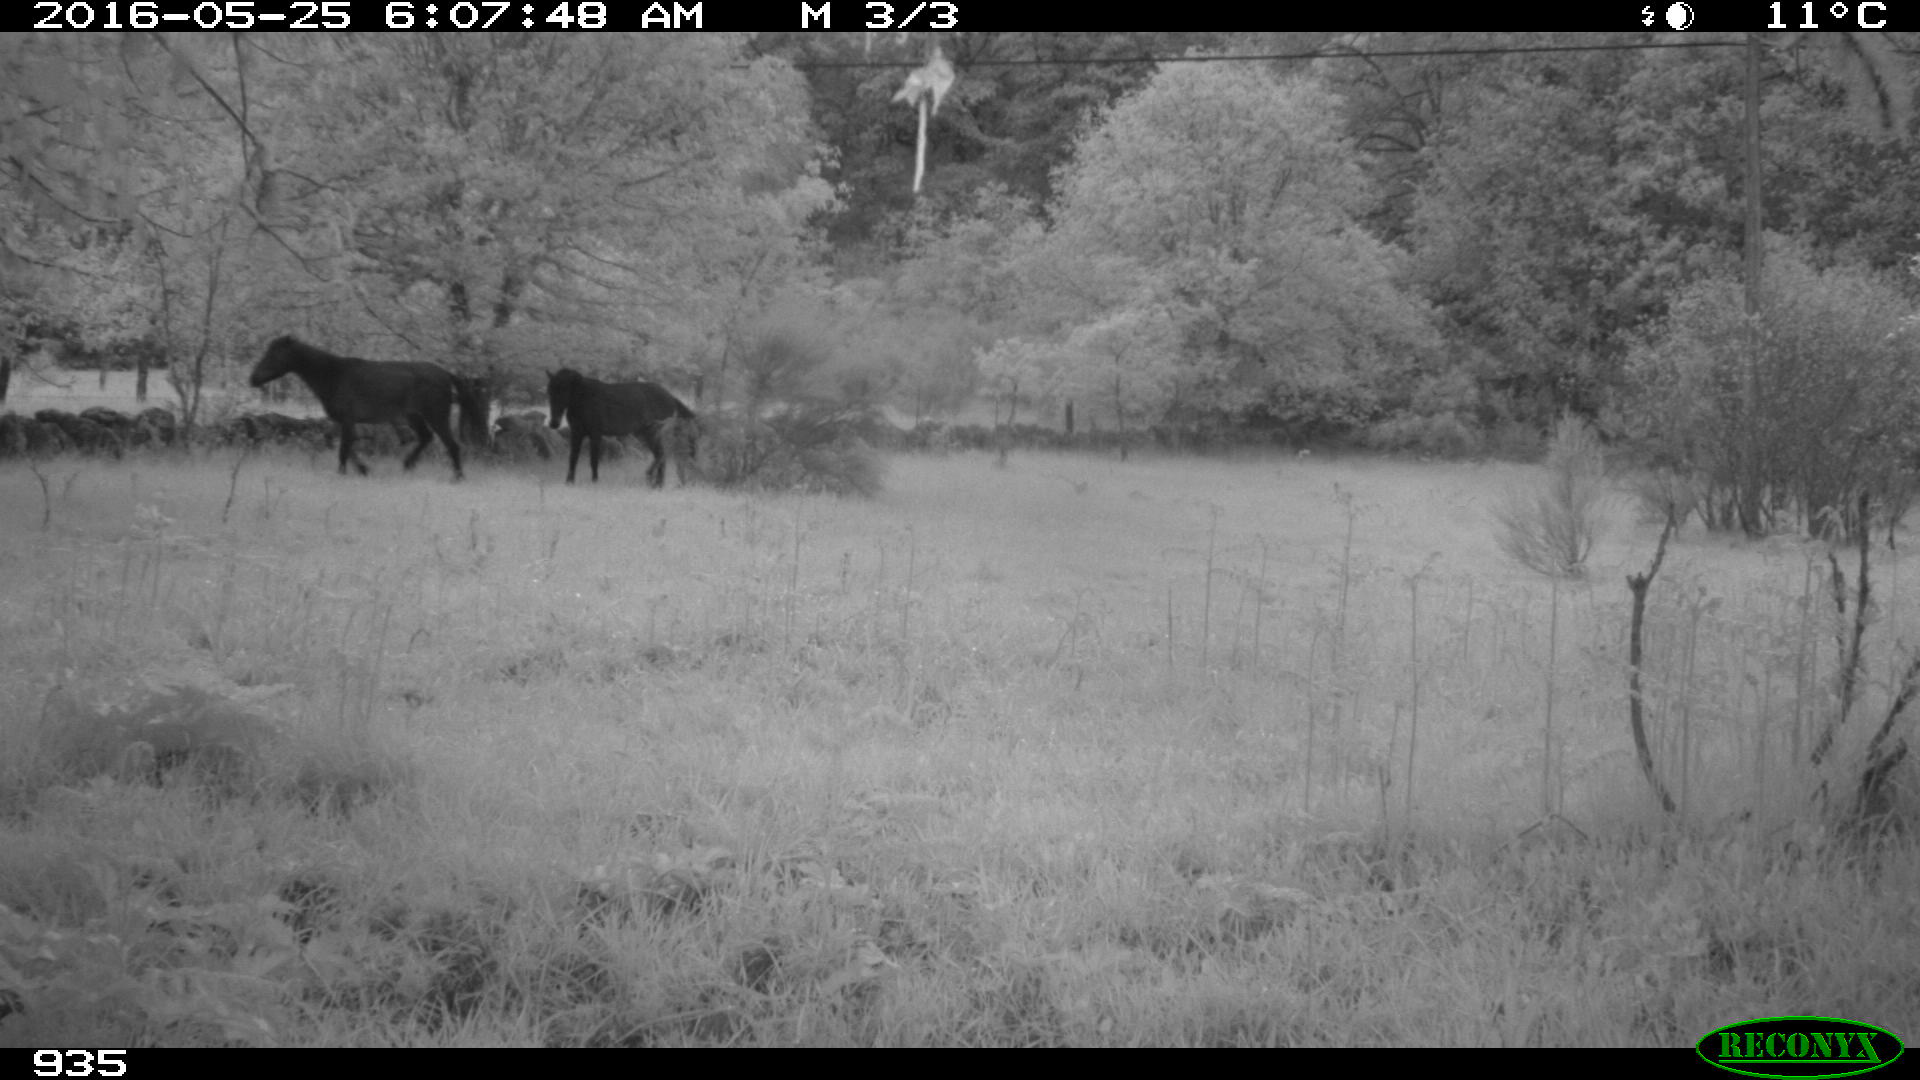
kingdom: Animalia
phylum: Chordata
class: Mammalia
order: Perissodactyla
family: Equidae
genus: Equus
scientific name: Equus caballus
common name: Horse
